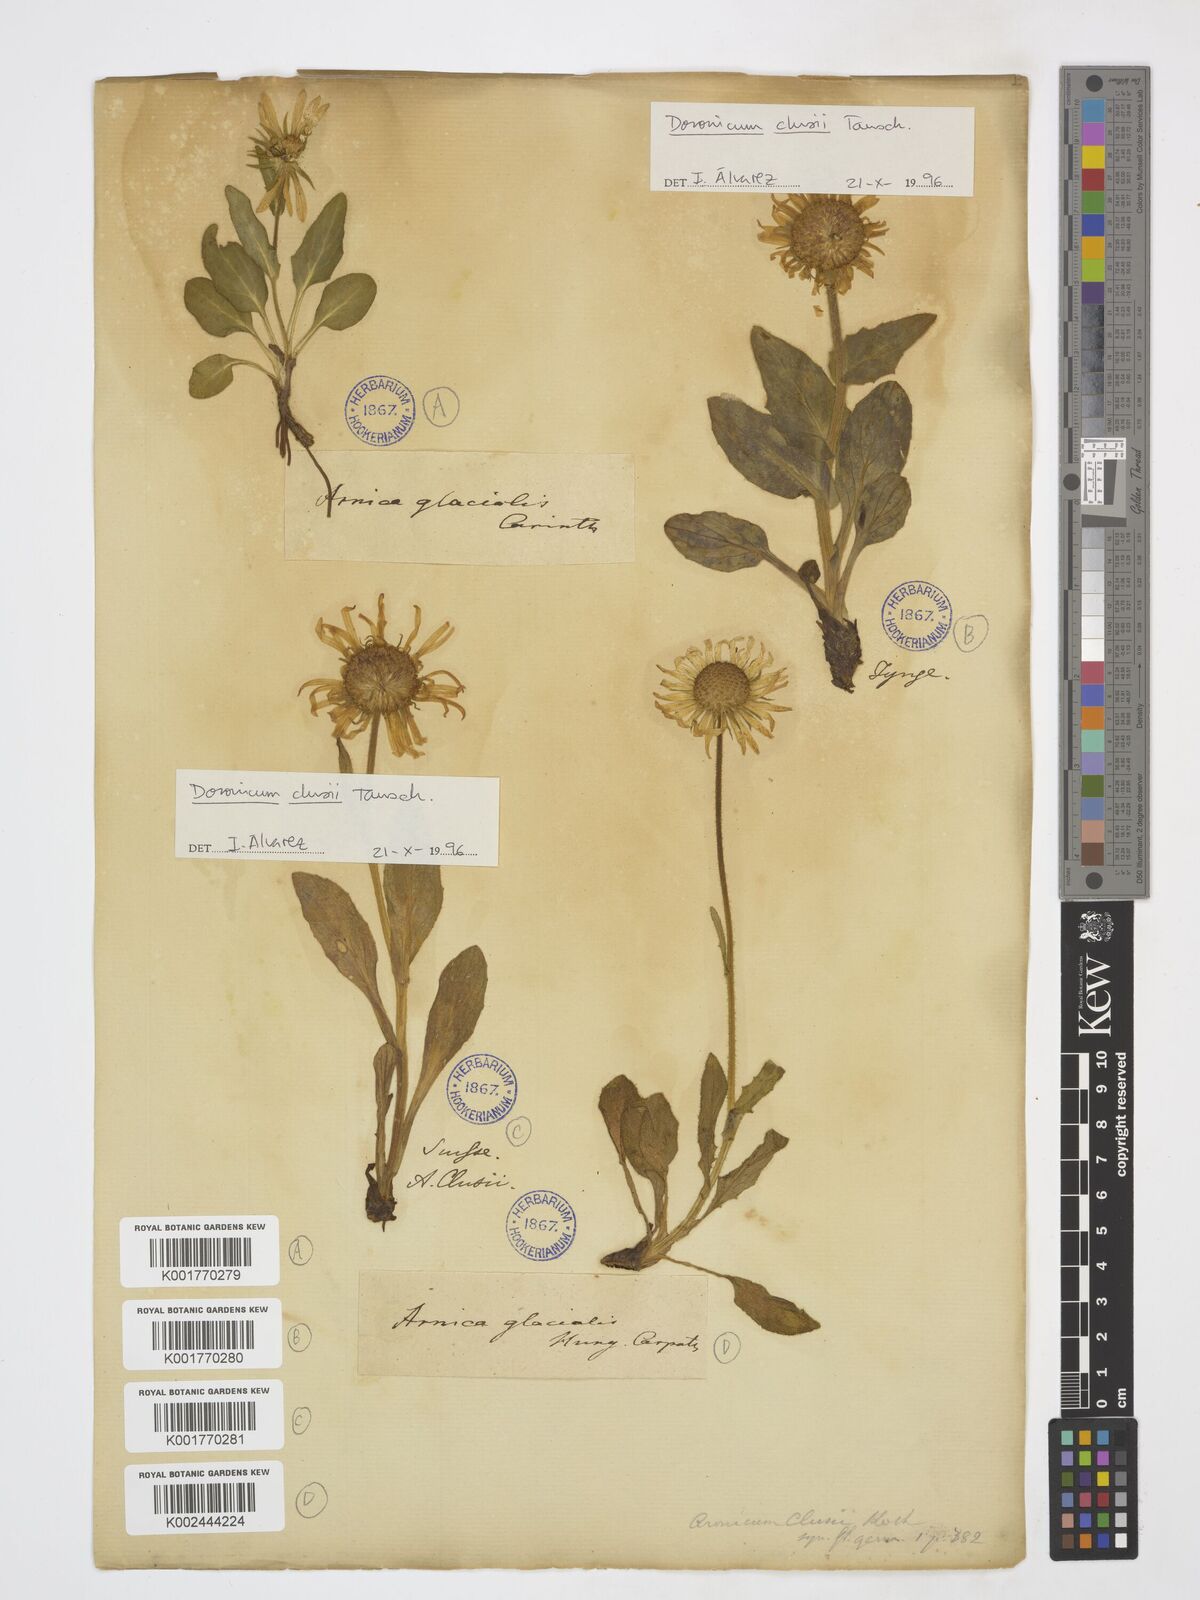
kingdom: Plantae
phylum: Tracheophyta
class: Magnoliopsida
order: Asterales
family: Asteraceae
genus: Doronicum
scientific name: Doronicum clusii
